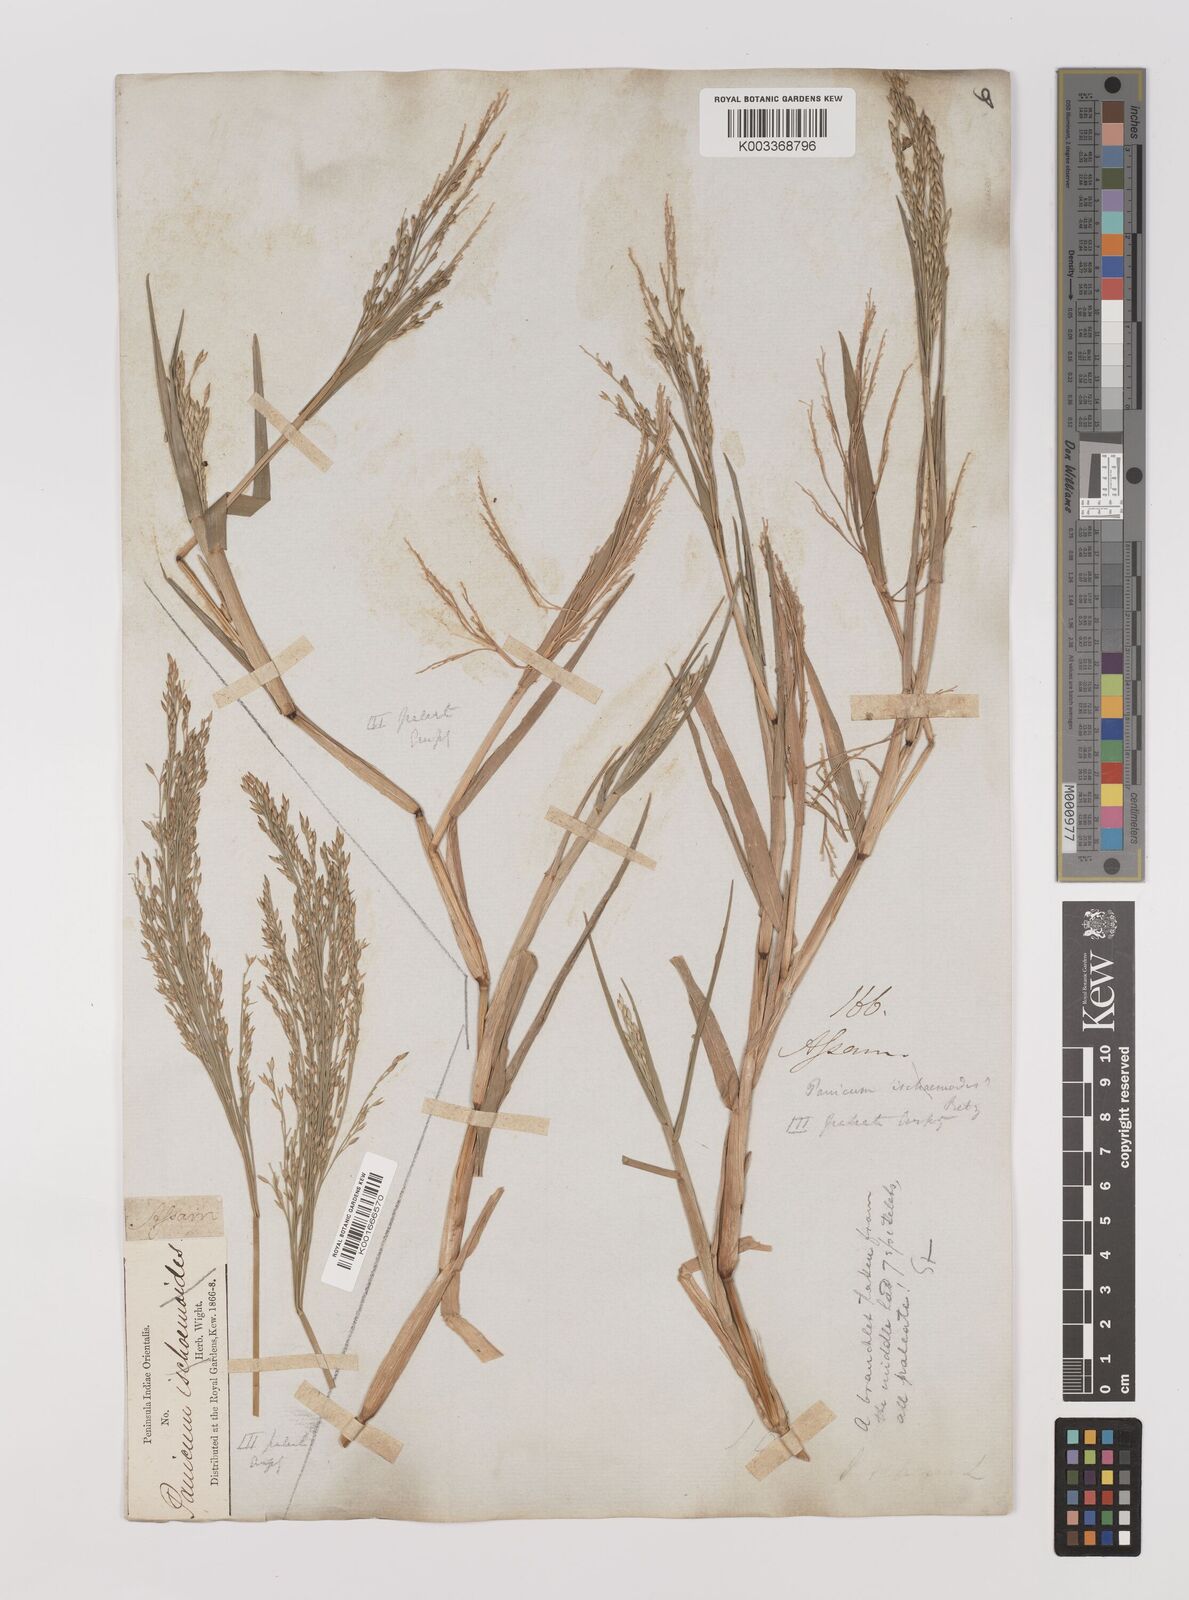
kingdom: Plantae
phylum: Tracheophyta
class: Liliopsida
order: Poales
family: Poaceae
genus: Louisiella
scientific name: Louisiella paludosa
